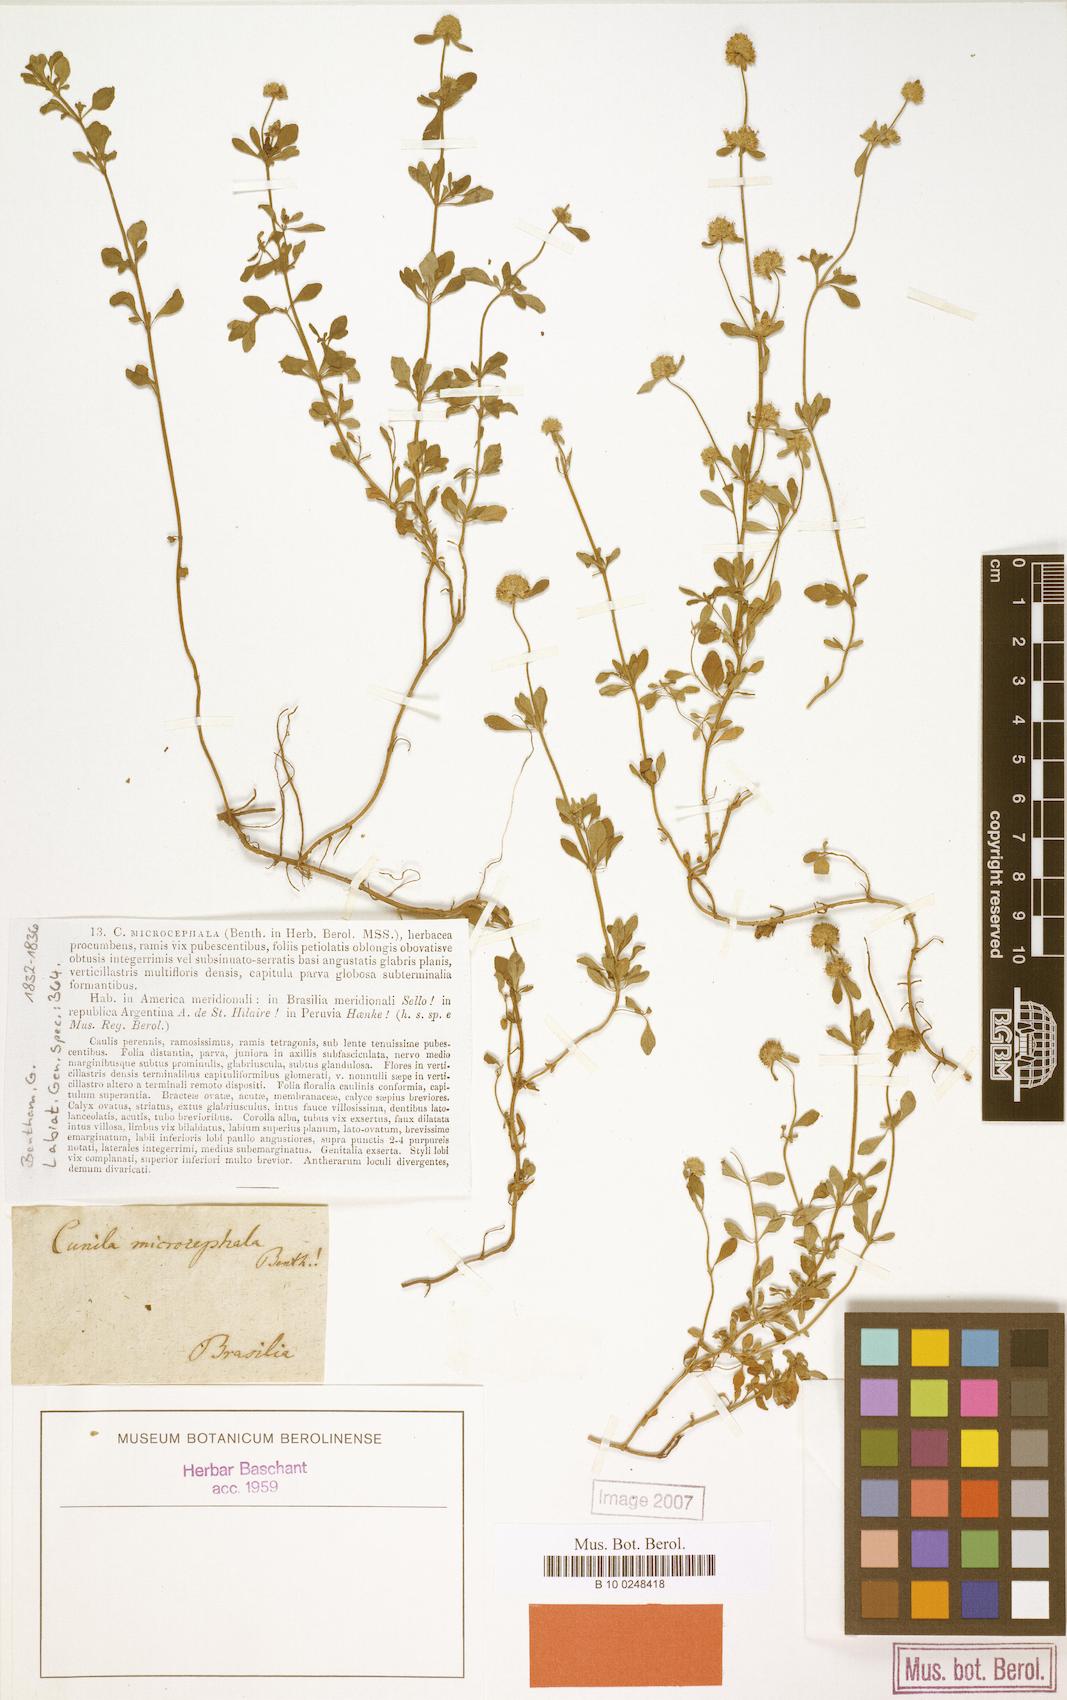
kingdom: Plantae
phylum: Tracheophyta
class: Magnoliopsida
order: Lamiales
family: Lamiaceae
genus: Cunila
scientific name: Cunila microcephala
